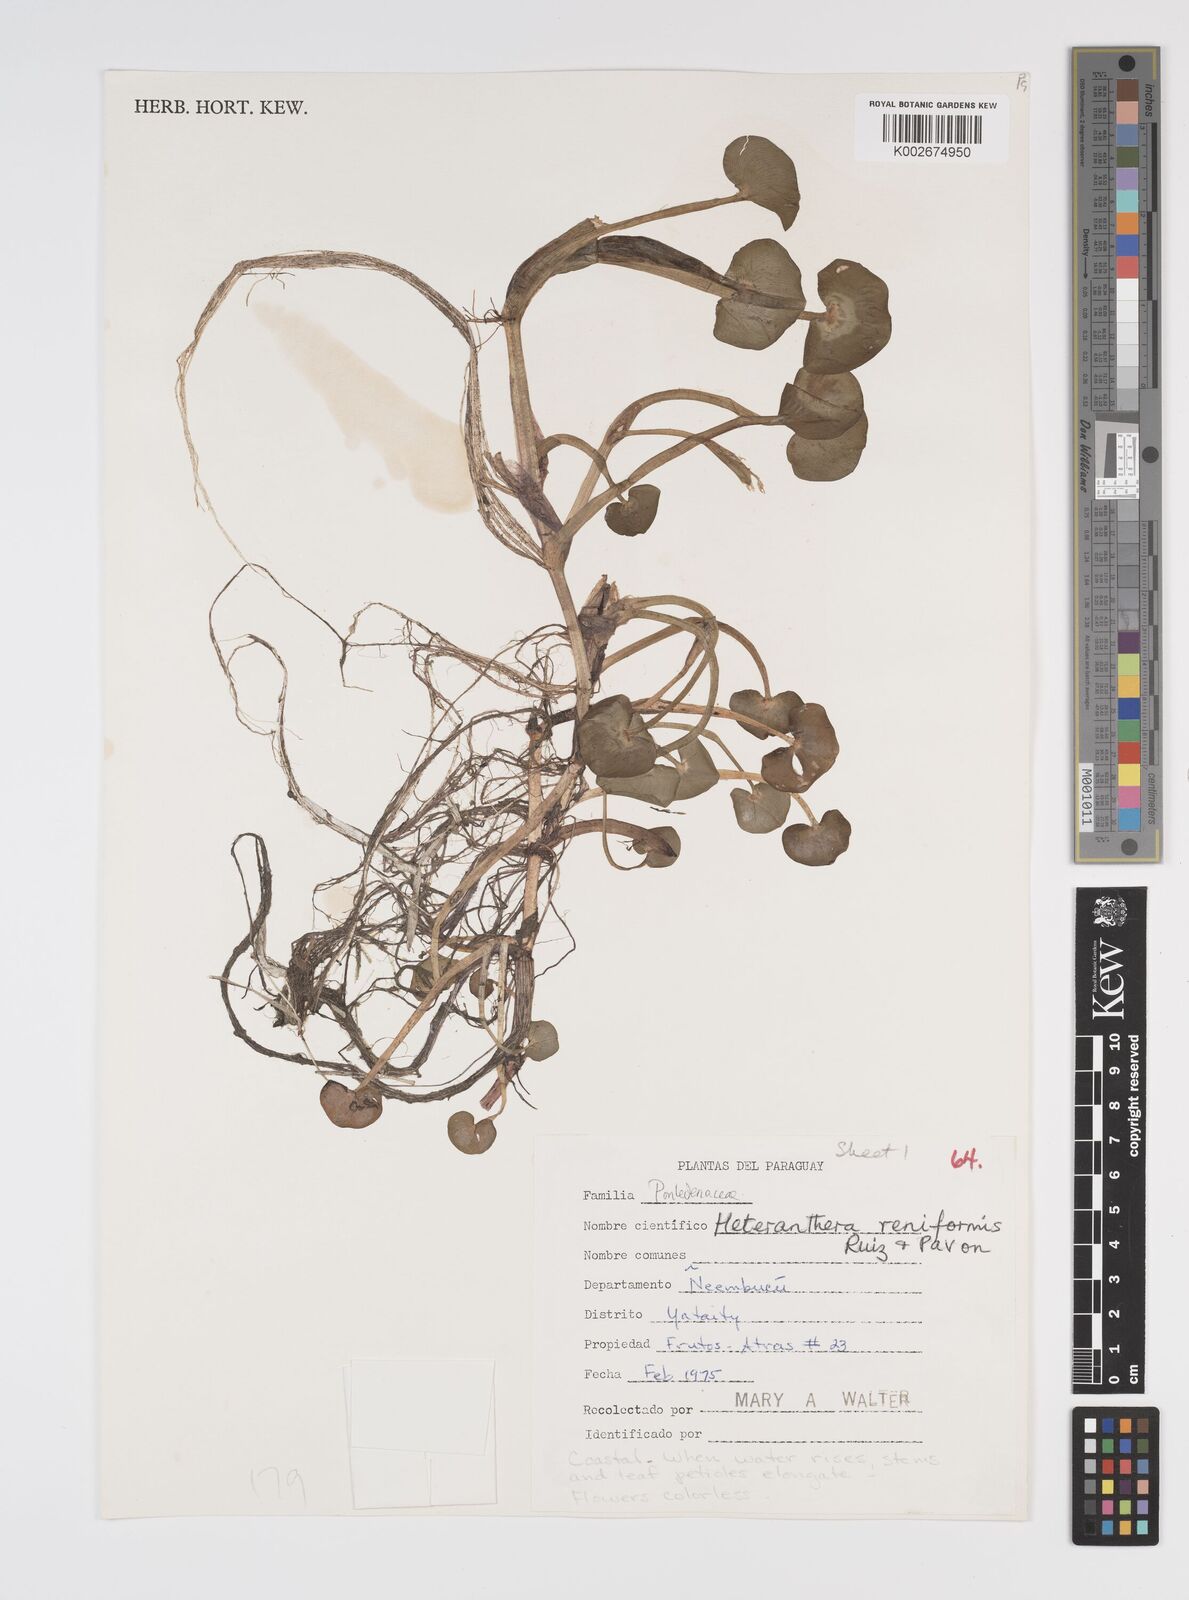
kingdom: Plantae
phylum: Tracheophyta
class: Liliopsida
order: Commelinales
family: Pontederiaceae
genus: Heteranthera
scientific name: Heteranthera reniformis
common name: Kidneyleaf mudplantain
